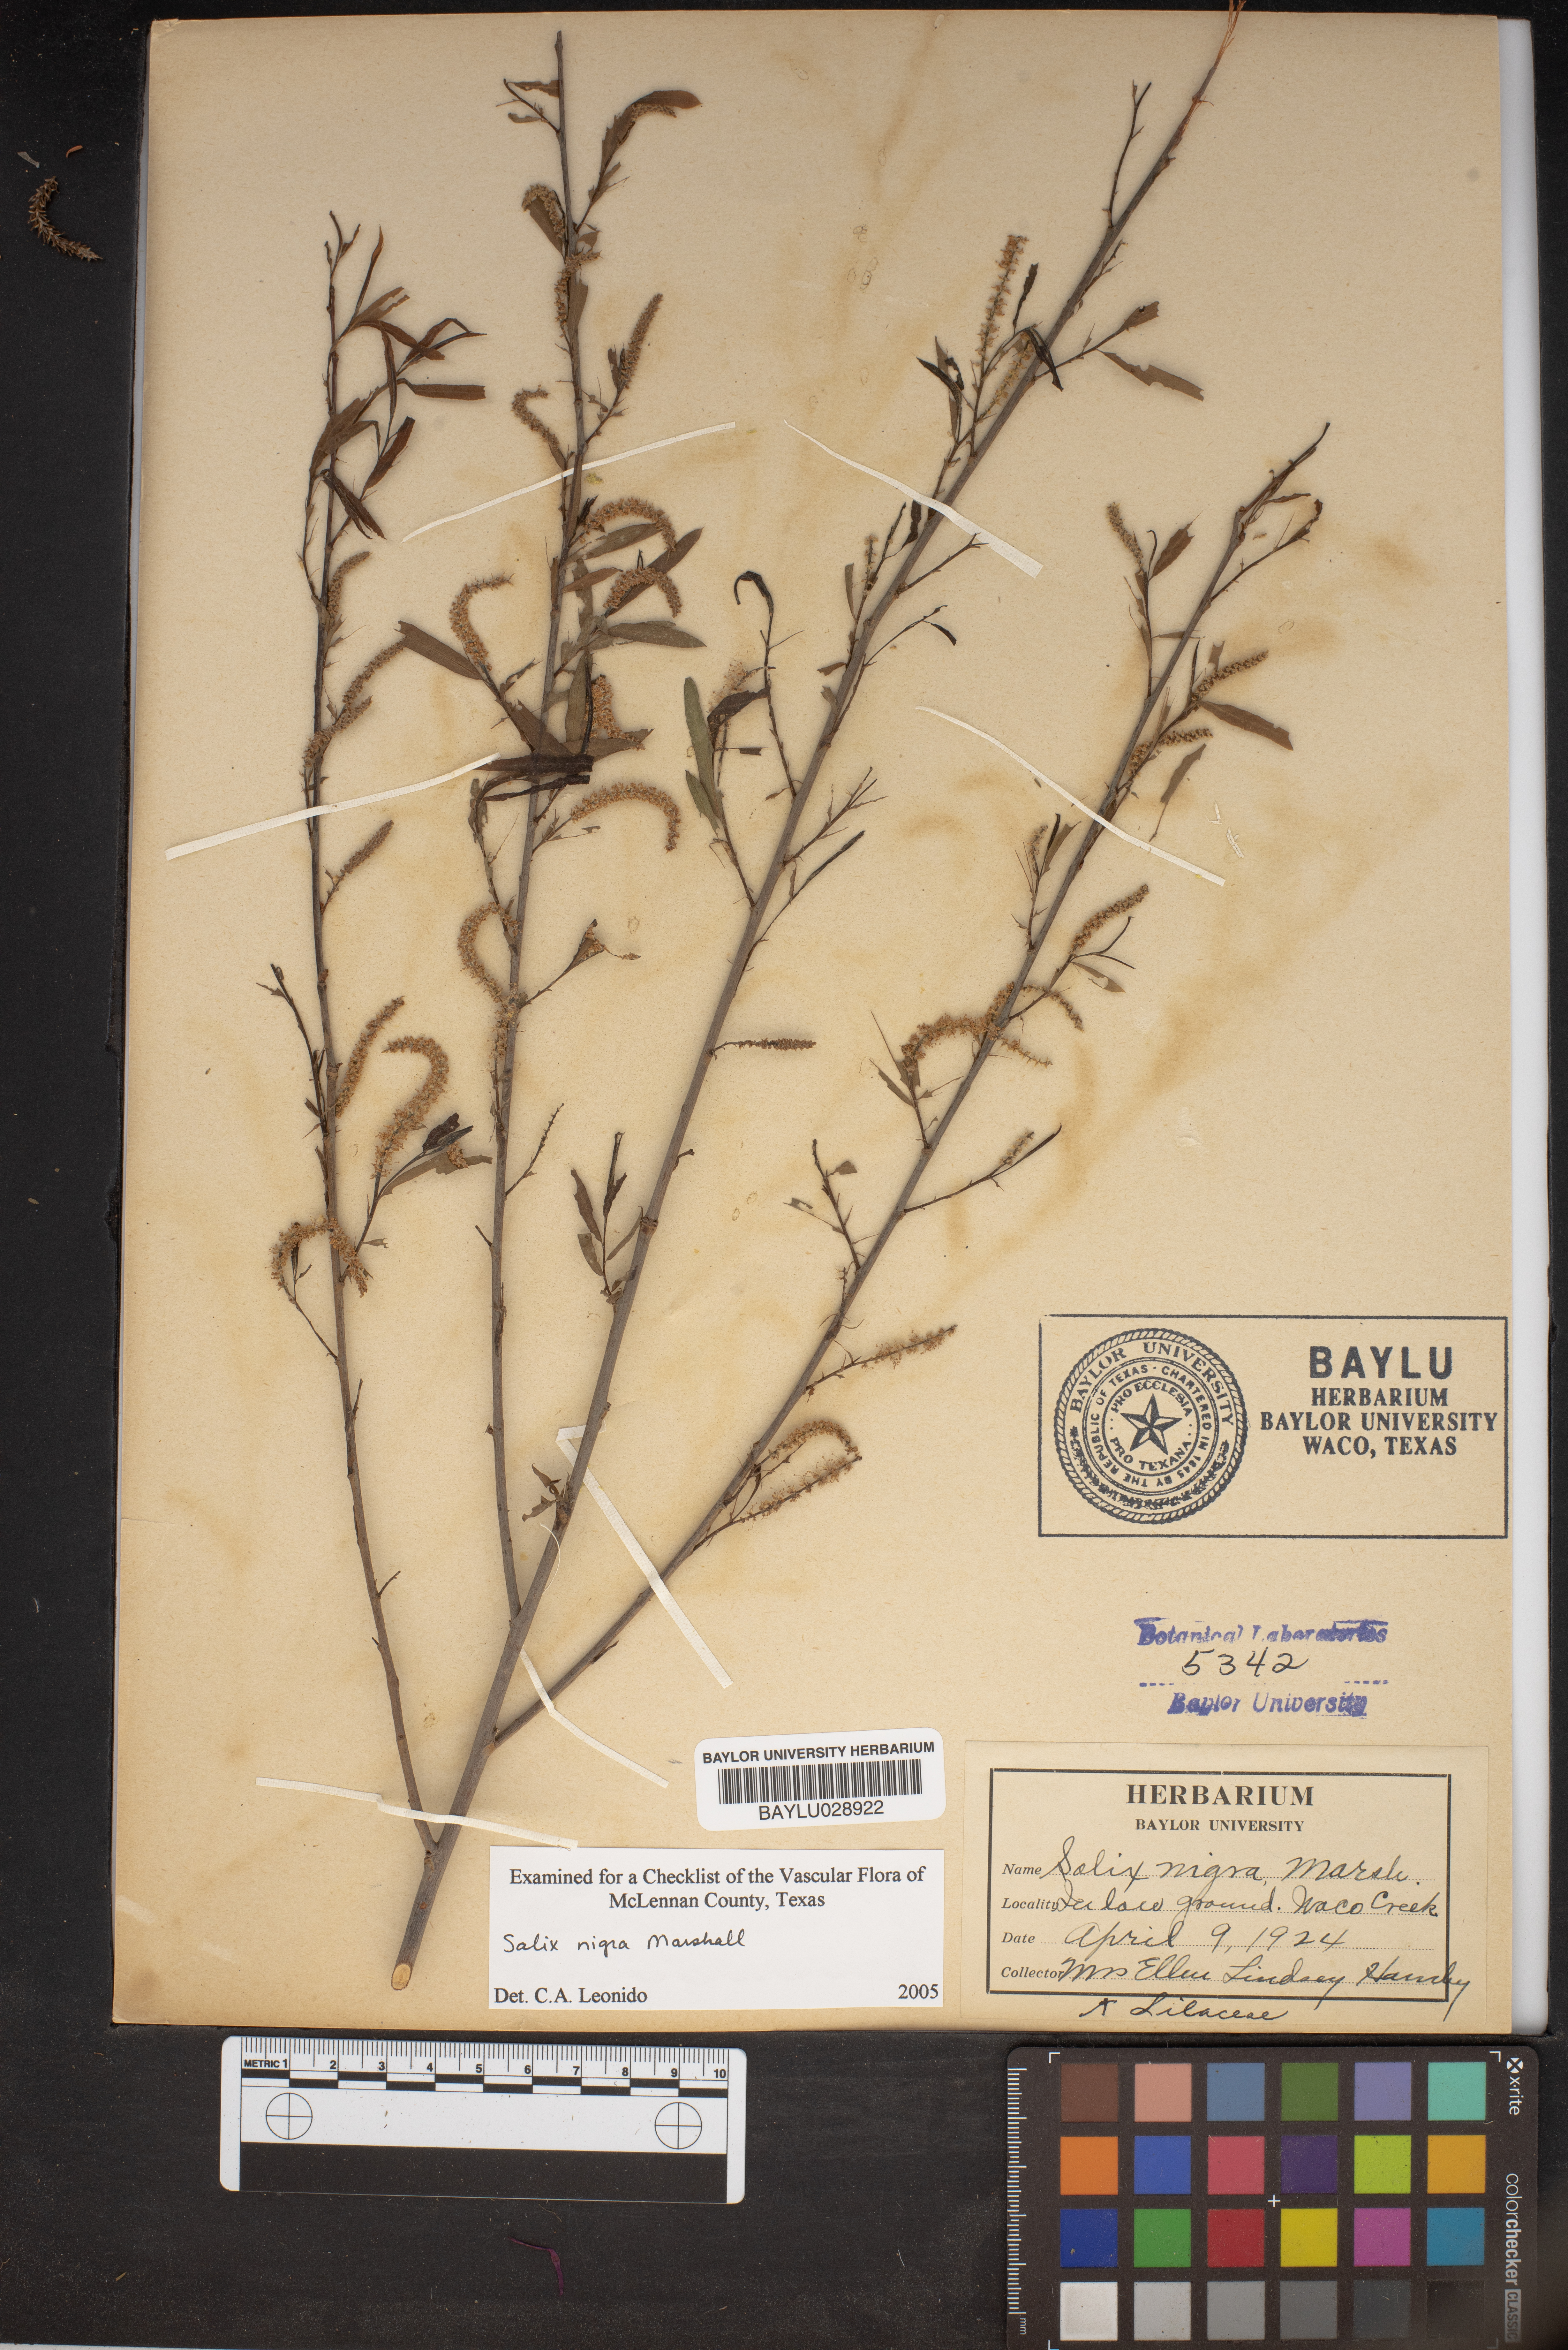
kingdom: Plantae
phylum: Tracheophyta
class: Magnoliopsida
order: Malpighiales
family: Salicaceae
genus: Salix
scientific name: Salix nigra
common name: Black willow
